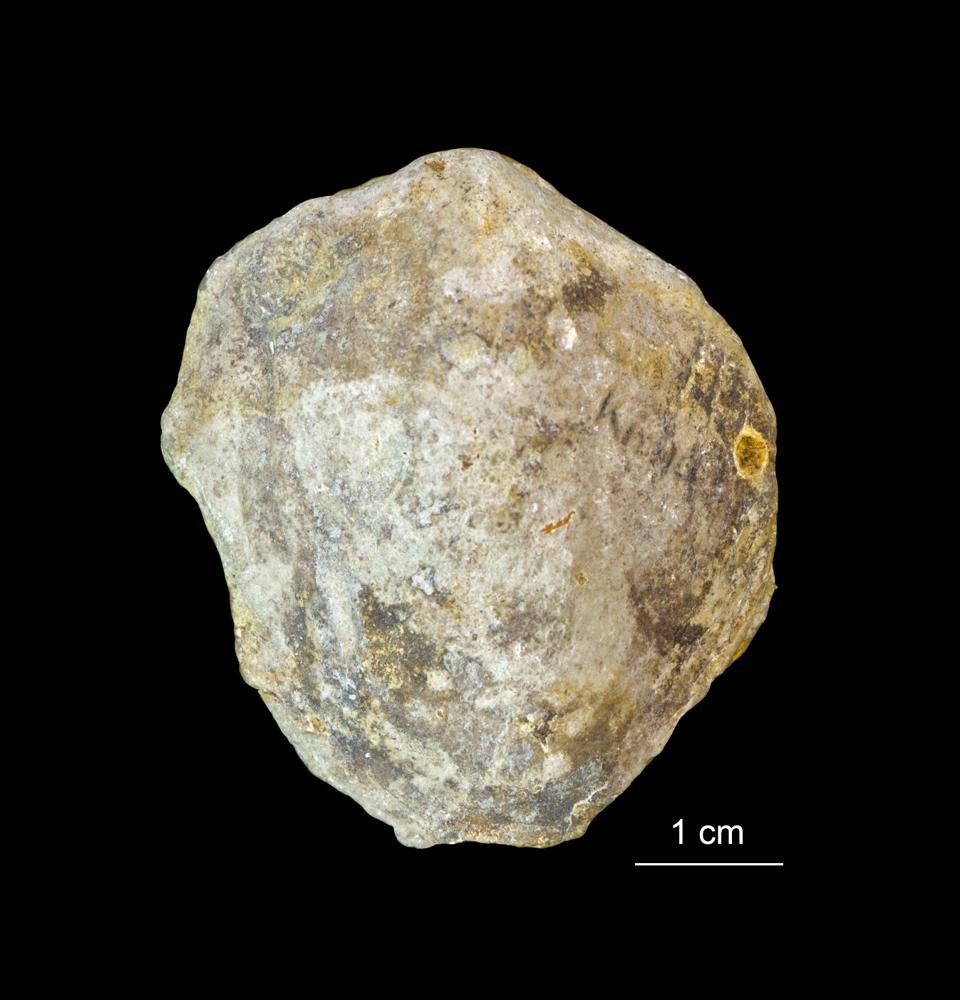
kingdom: Animalia
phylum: Mollusca
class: Bivalvia
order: Mytilida
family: Mytilidae
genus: Modiolus
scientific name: Modiolus incrassatus
